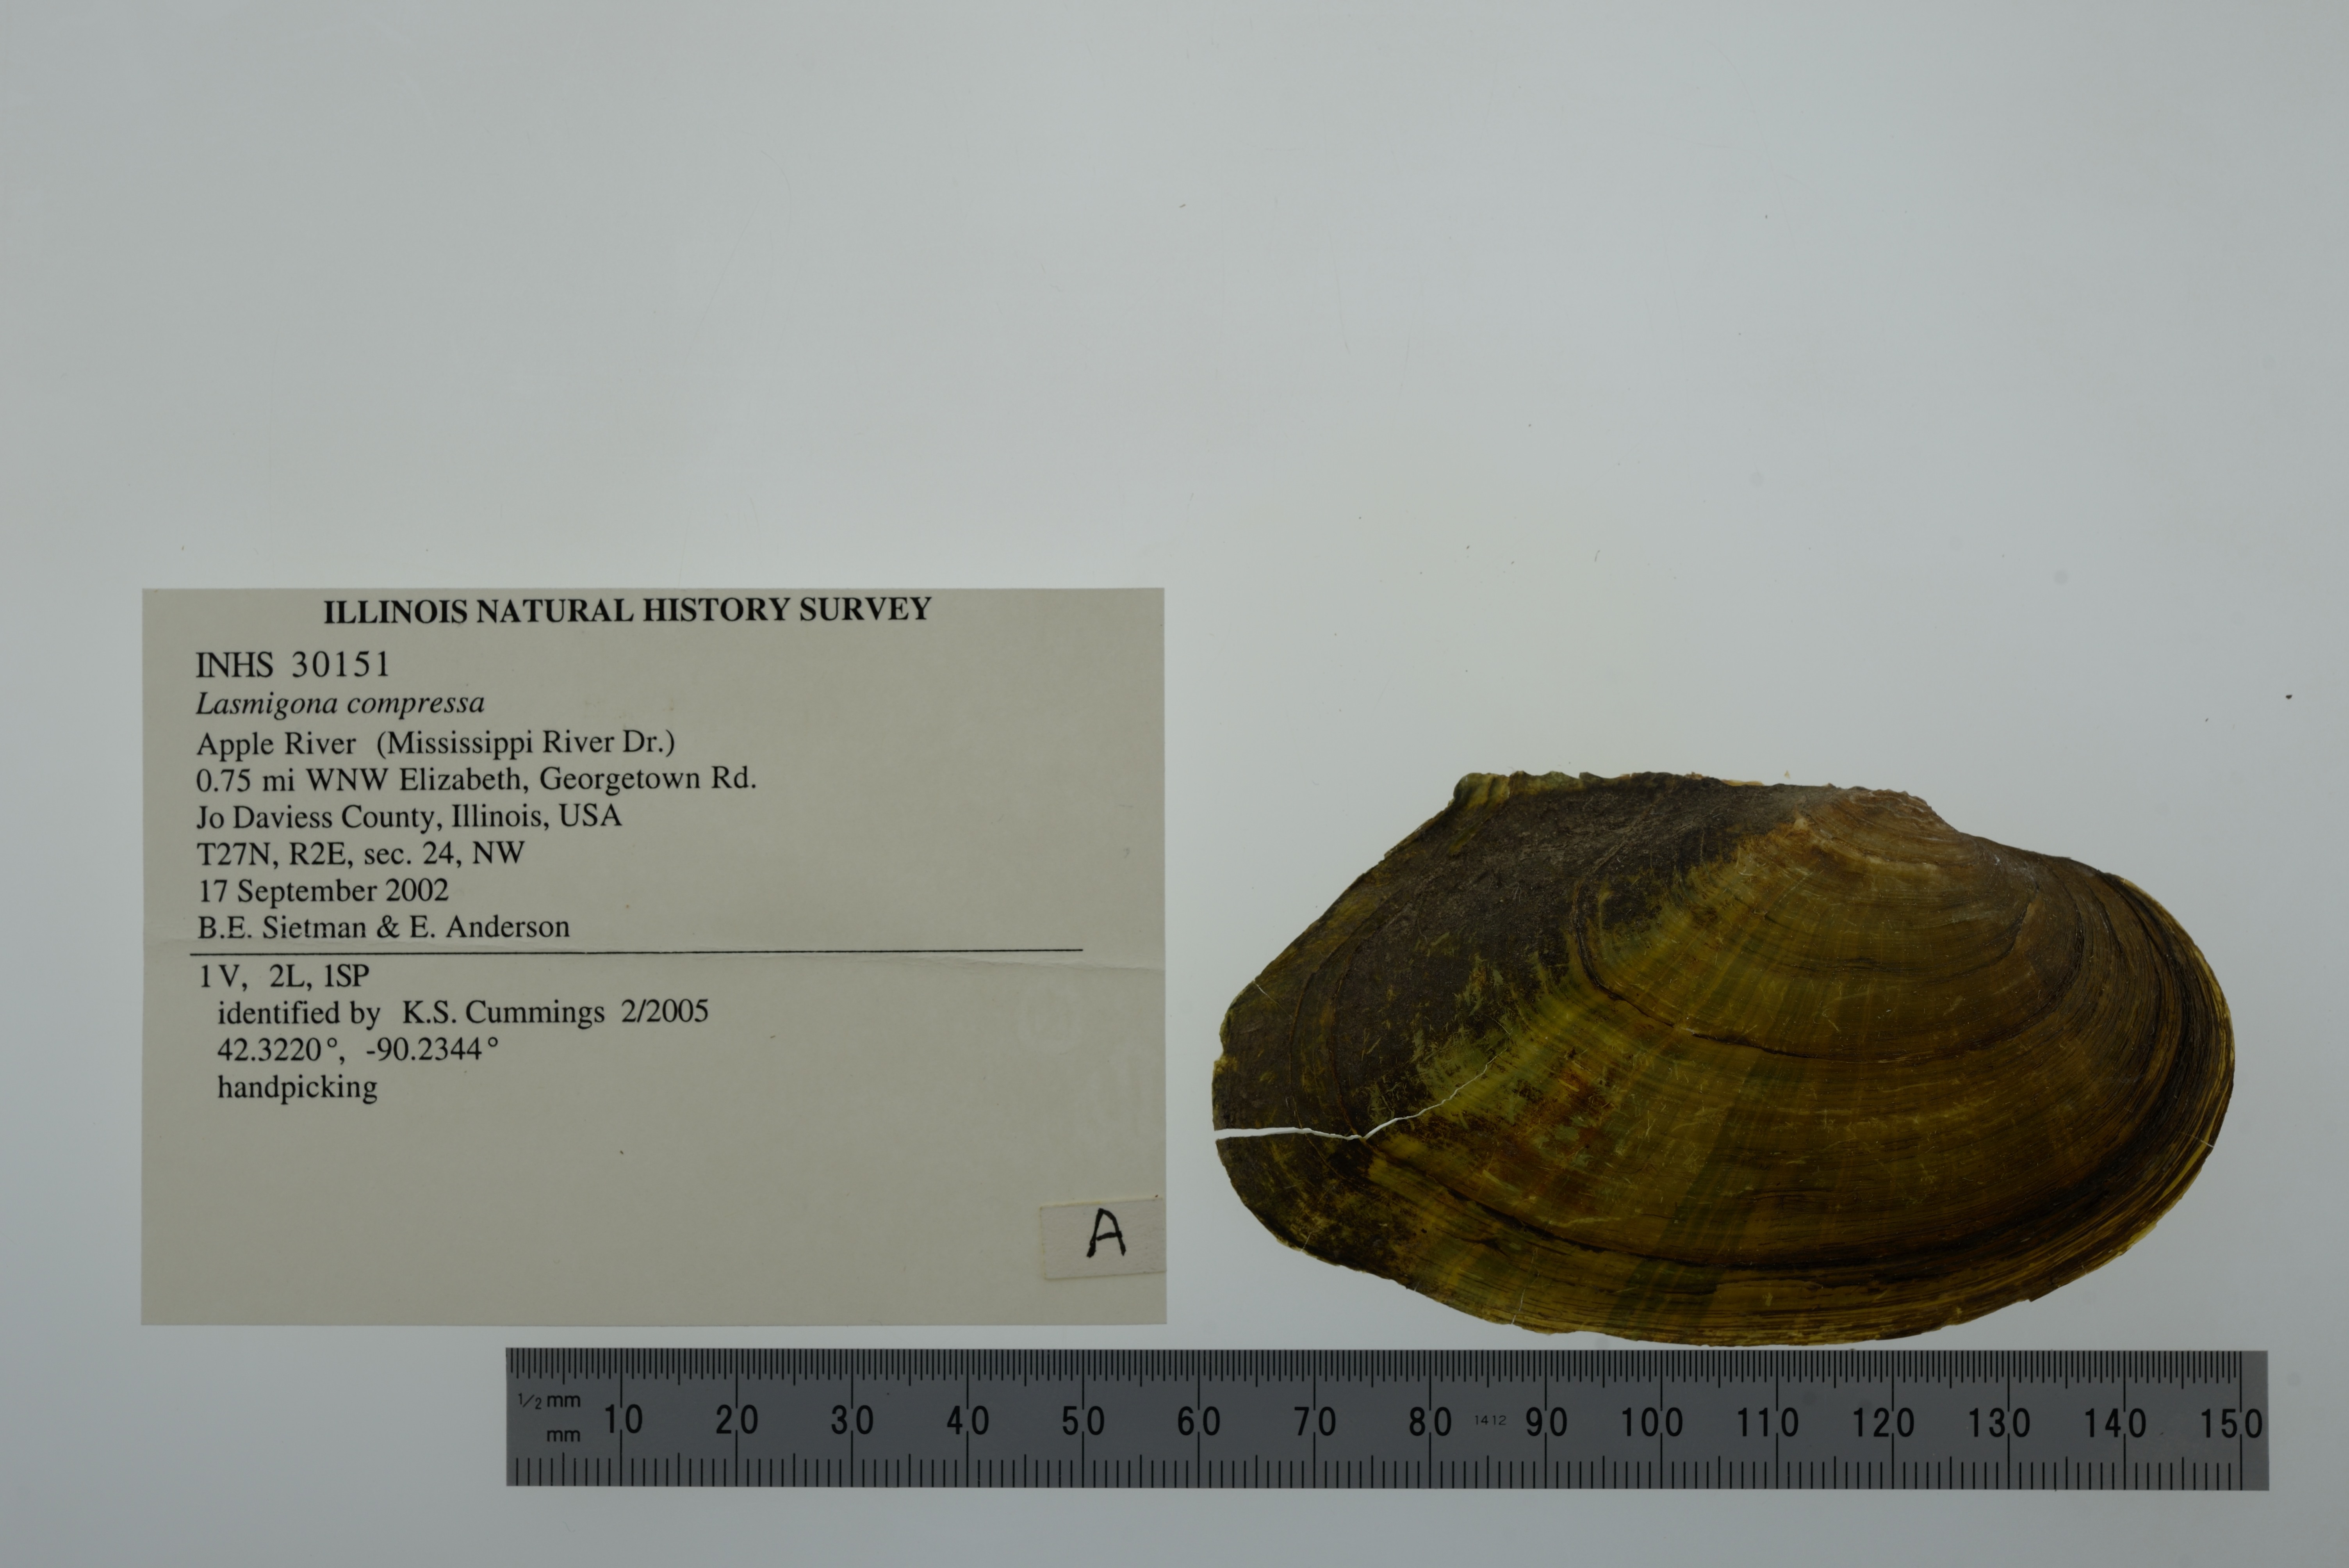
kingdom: Animalia
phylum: Mollusca
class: Bivalvia
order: Unionida
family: Unionidae
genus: Lasmigona
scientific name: Lasmigona compressa
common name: Creek heelsplitter
